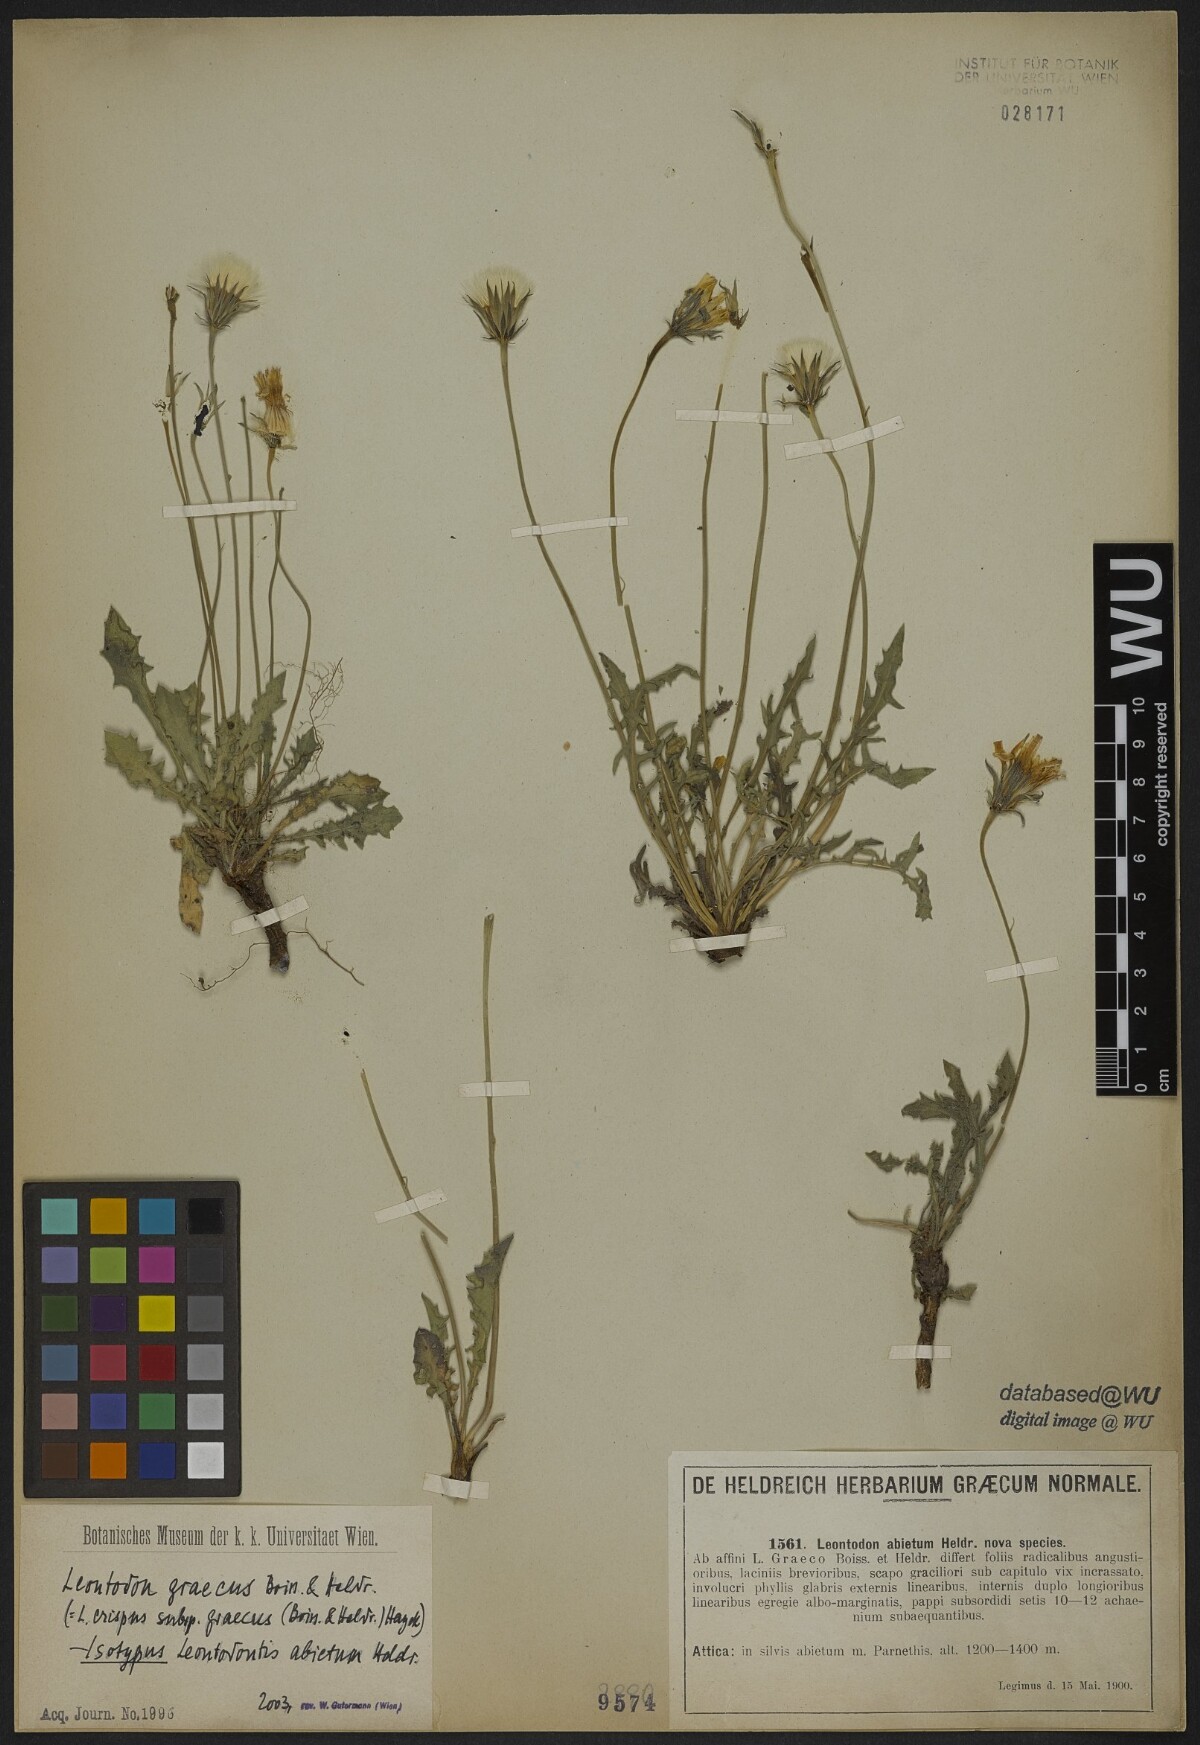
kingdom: Plantae
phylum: Tracheophyta
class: Magnoliopsida
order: Asterales
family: Asteraceae
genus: Leontodon
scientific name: Leontodon
